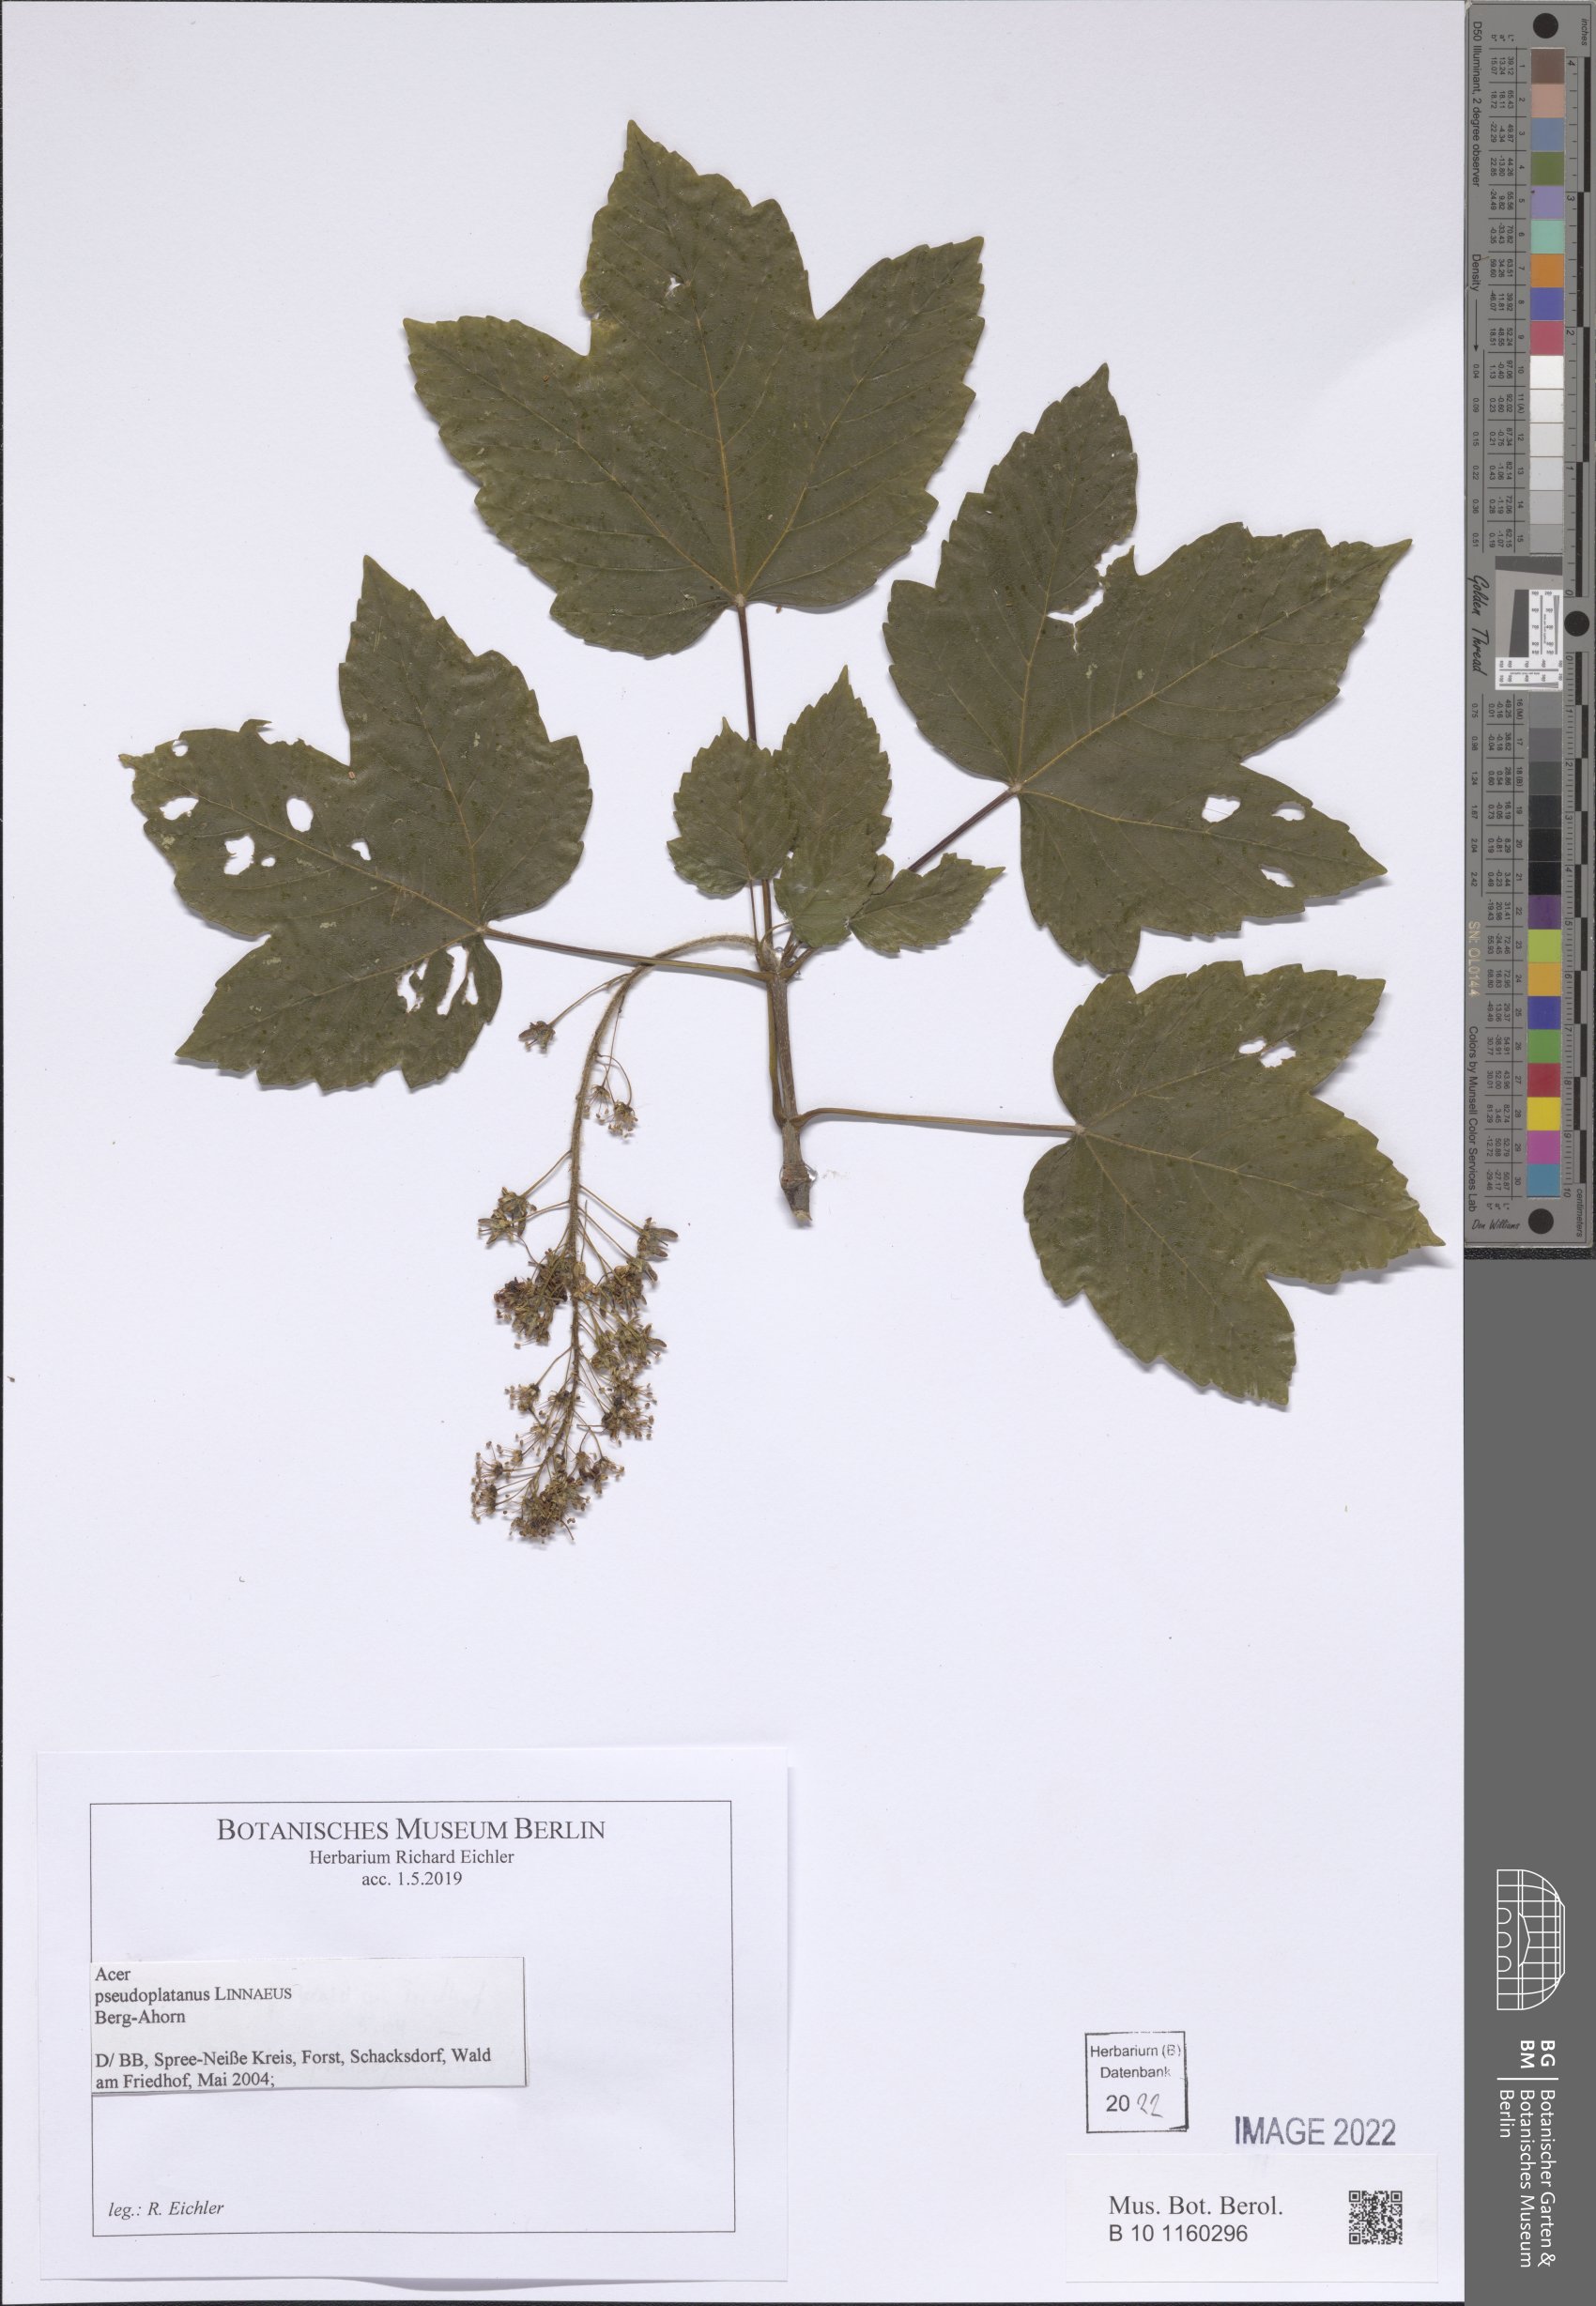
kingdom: Plantae
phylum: Tracheophyta
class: Magnoliopsida
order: Sapindales
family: Sapindaceae
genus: Acer
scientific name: Acer pseudoplatanus
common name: Sycamore
